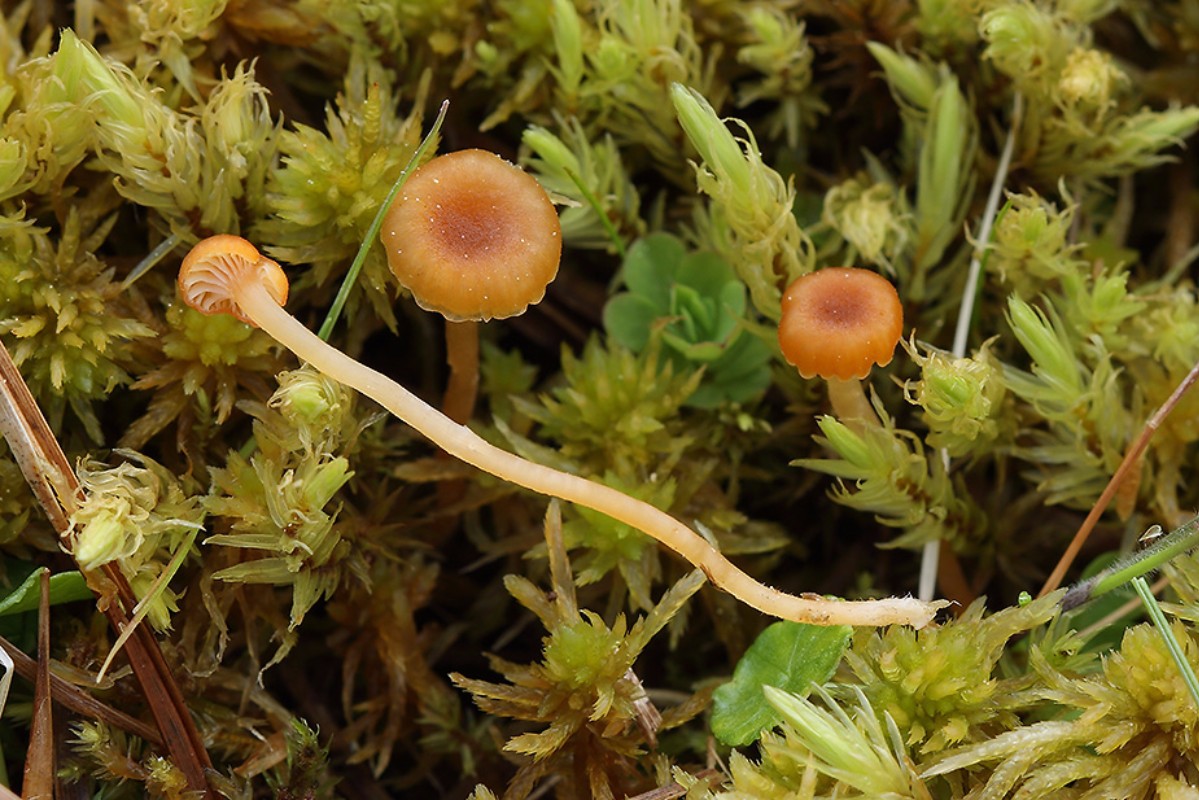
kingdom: Fungi
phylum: Basidiomycota
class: Agaricomycetes
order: Hymenochaetales
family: Rickenellaceae
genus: Rickenella
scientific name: Rickenella fibula
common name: orange mosnavlehat
